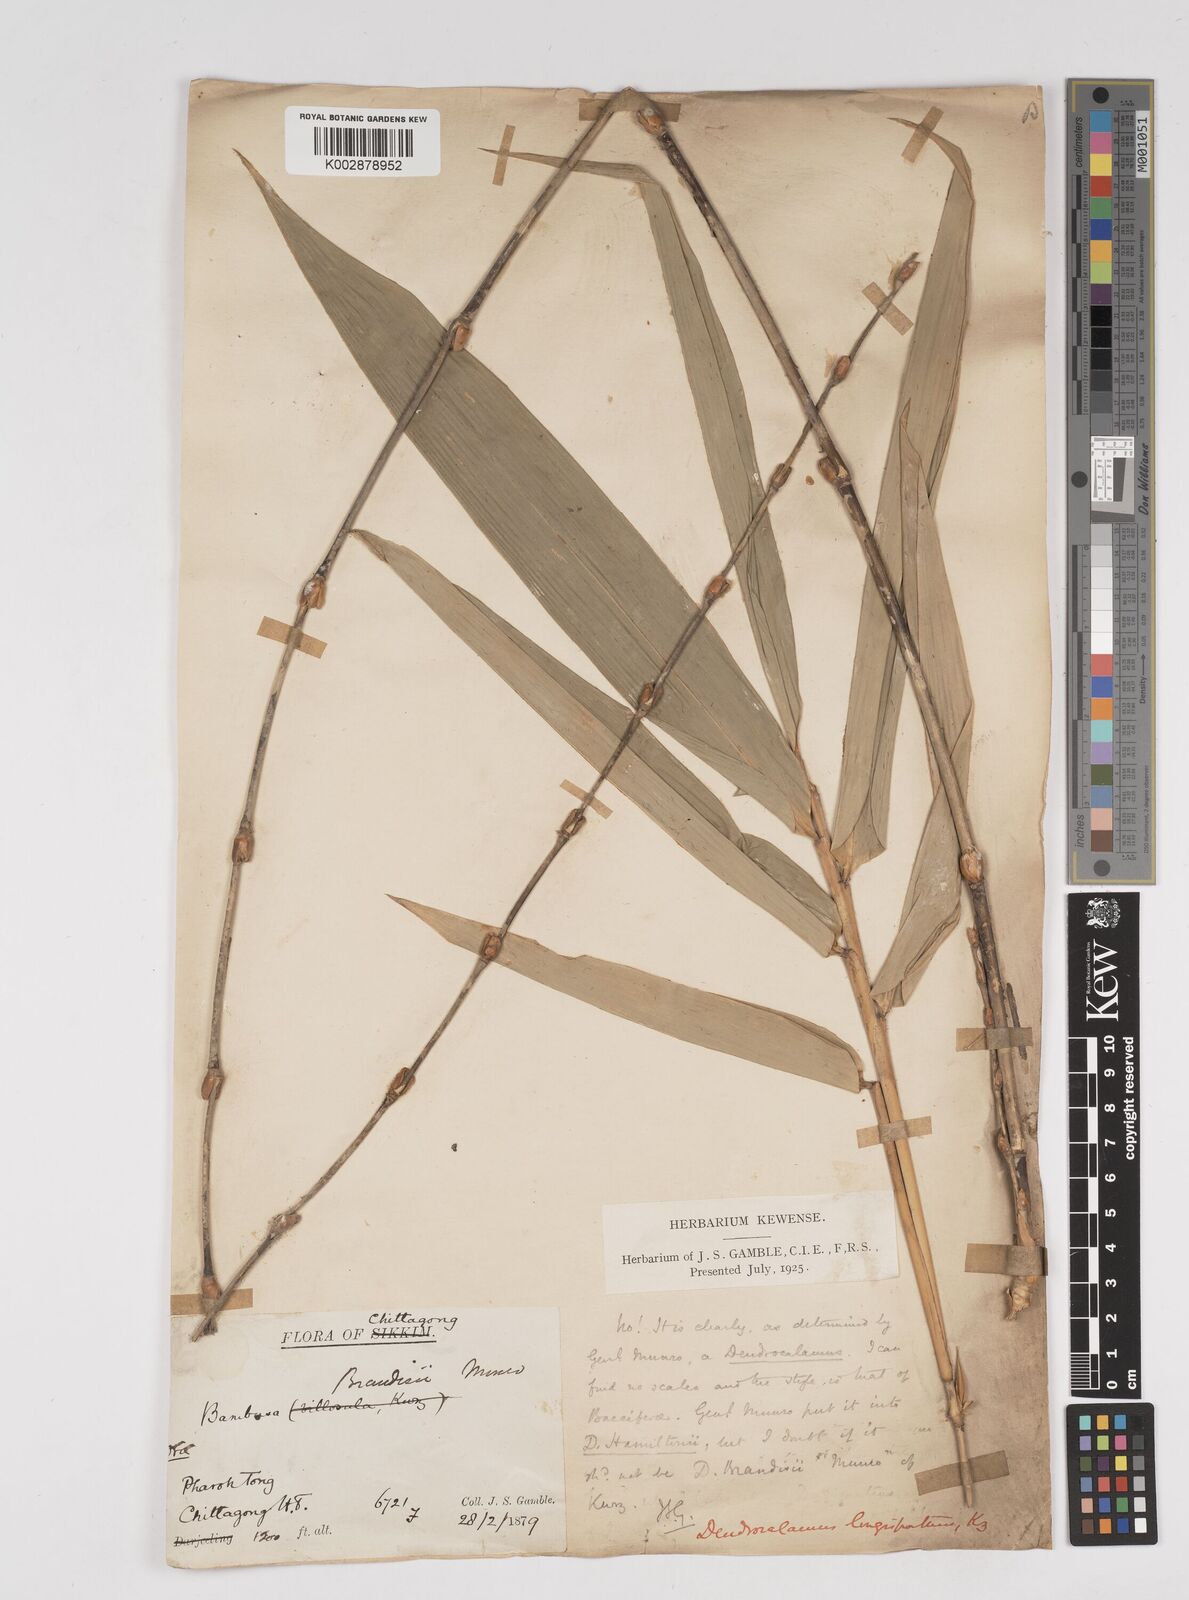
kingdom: Plantae
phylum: Tracheophyta
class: Liliopsida
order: Poales
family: Poaceae
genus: Dendrocalamus
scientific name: Dendrocalamus longispathus
